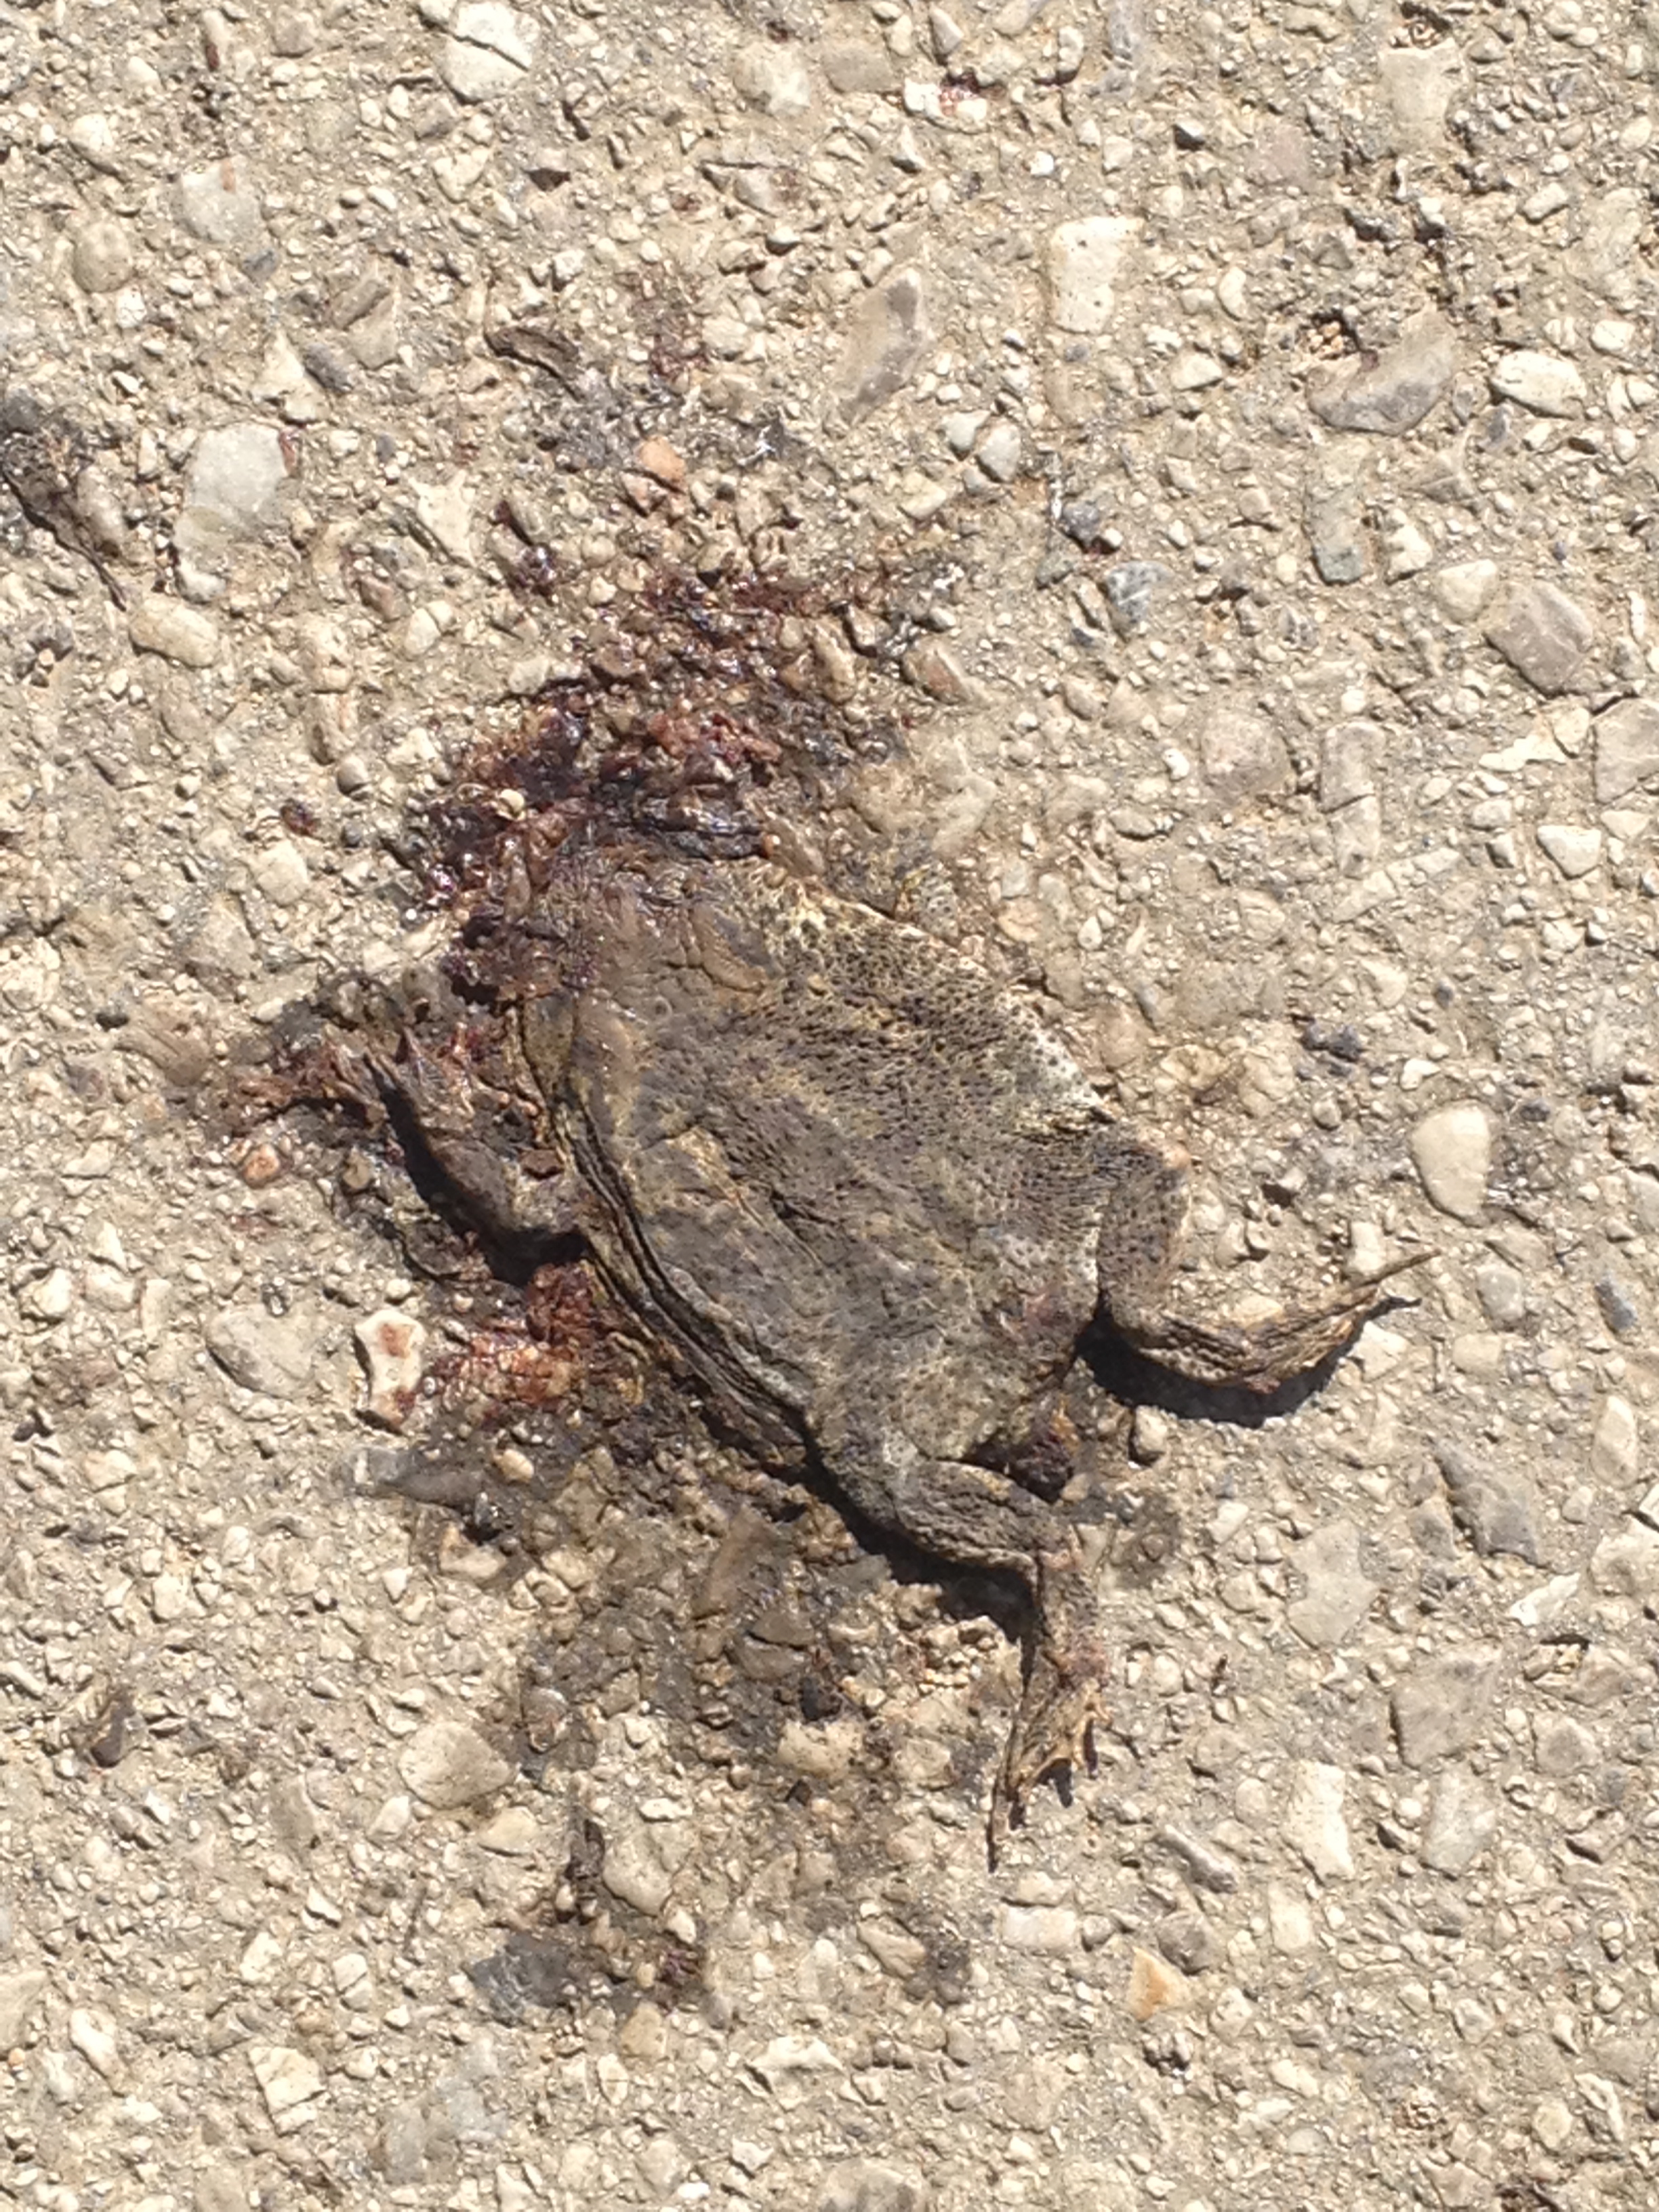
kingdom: Animalia
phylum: Chordata
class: Amphibia
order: Anura
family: Bufonidae
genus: Bufo
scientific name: Bufo bufo
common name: Common toad
